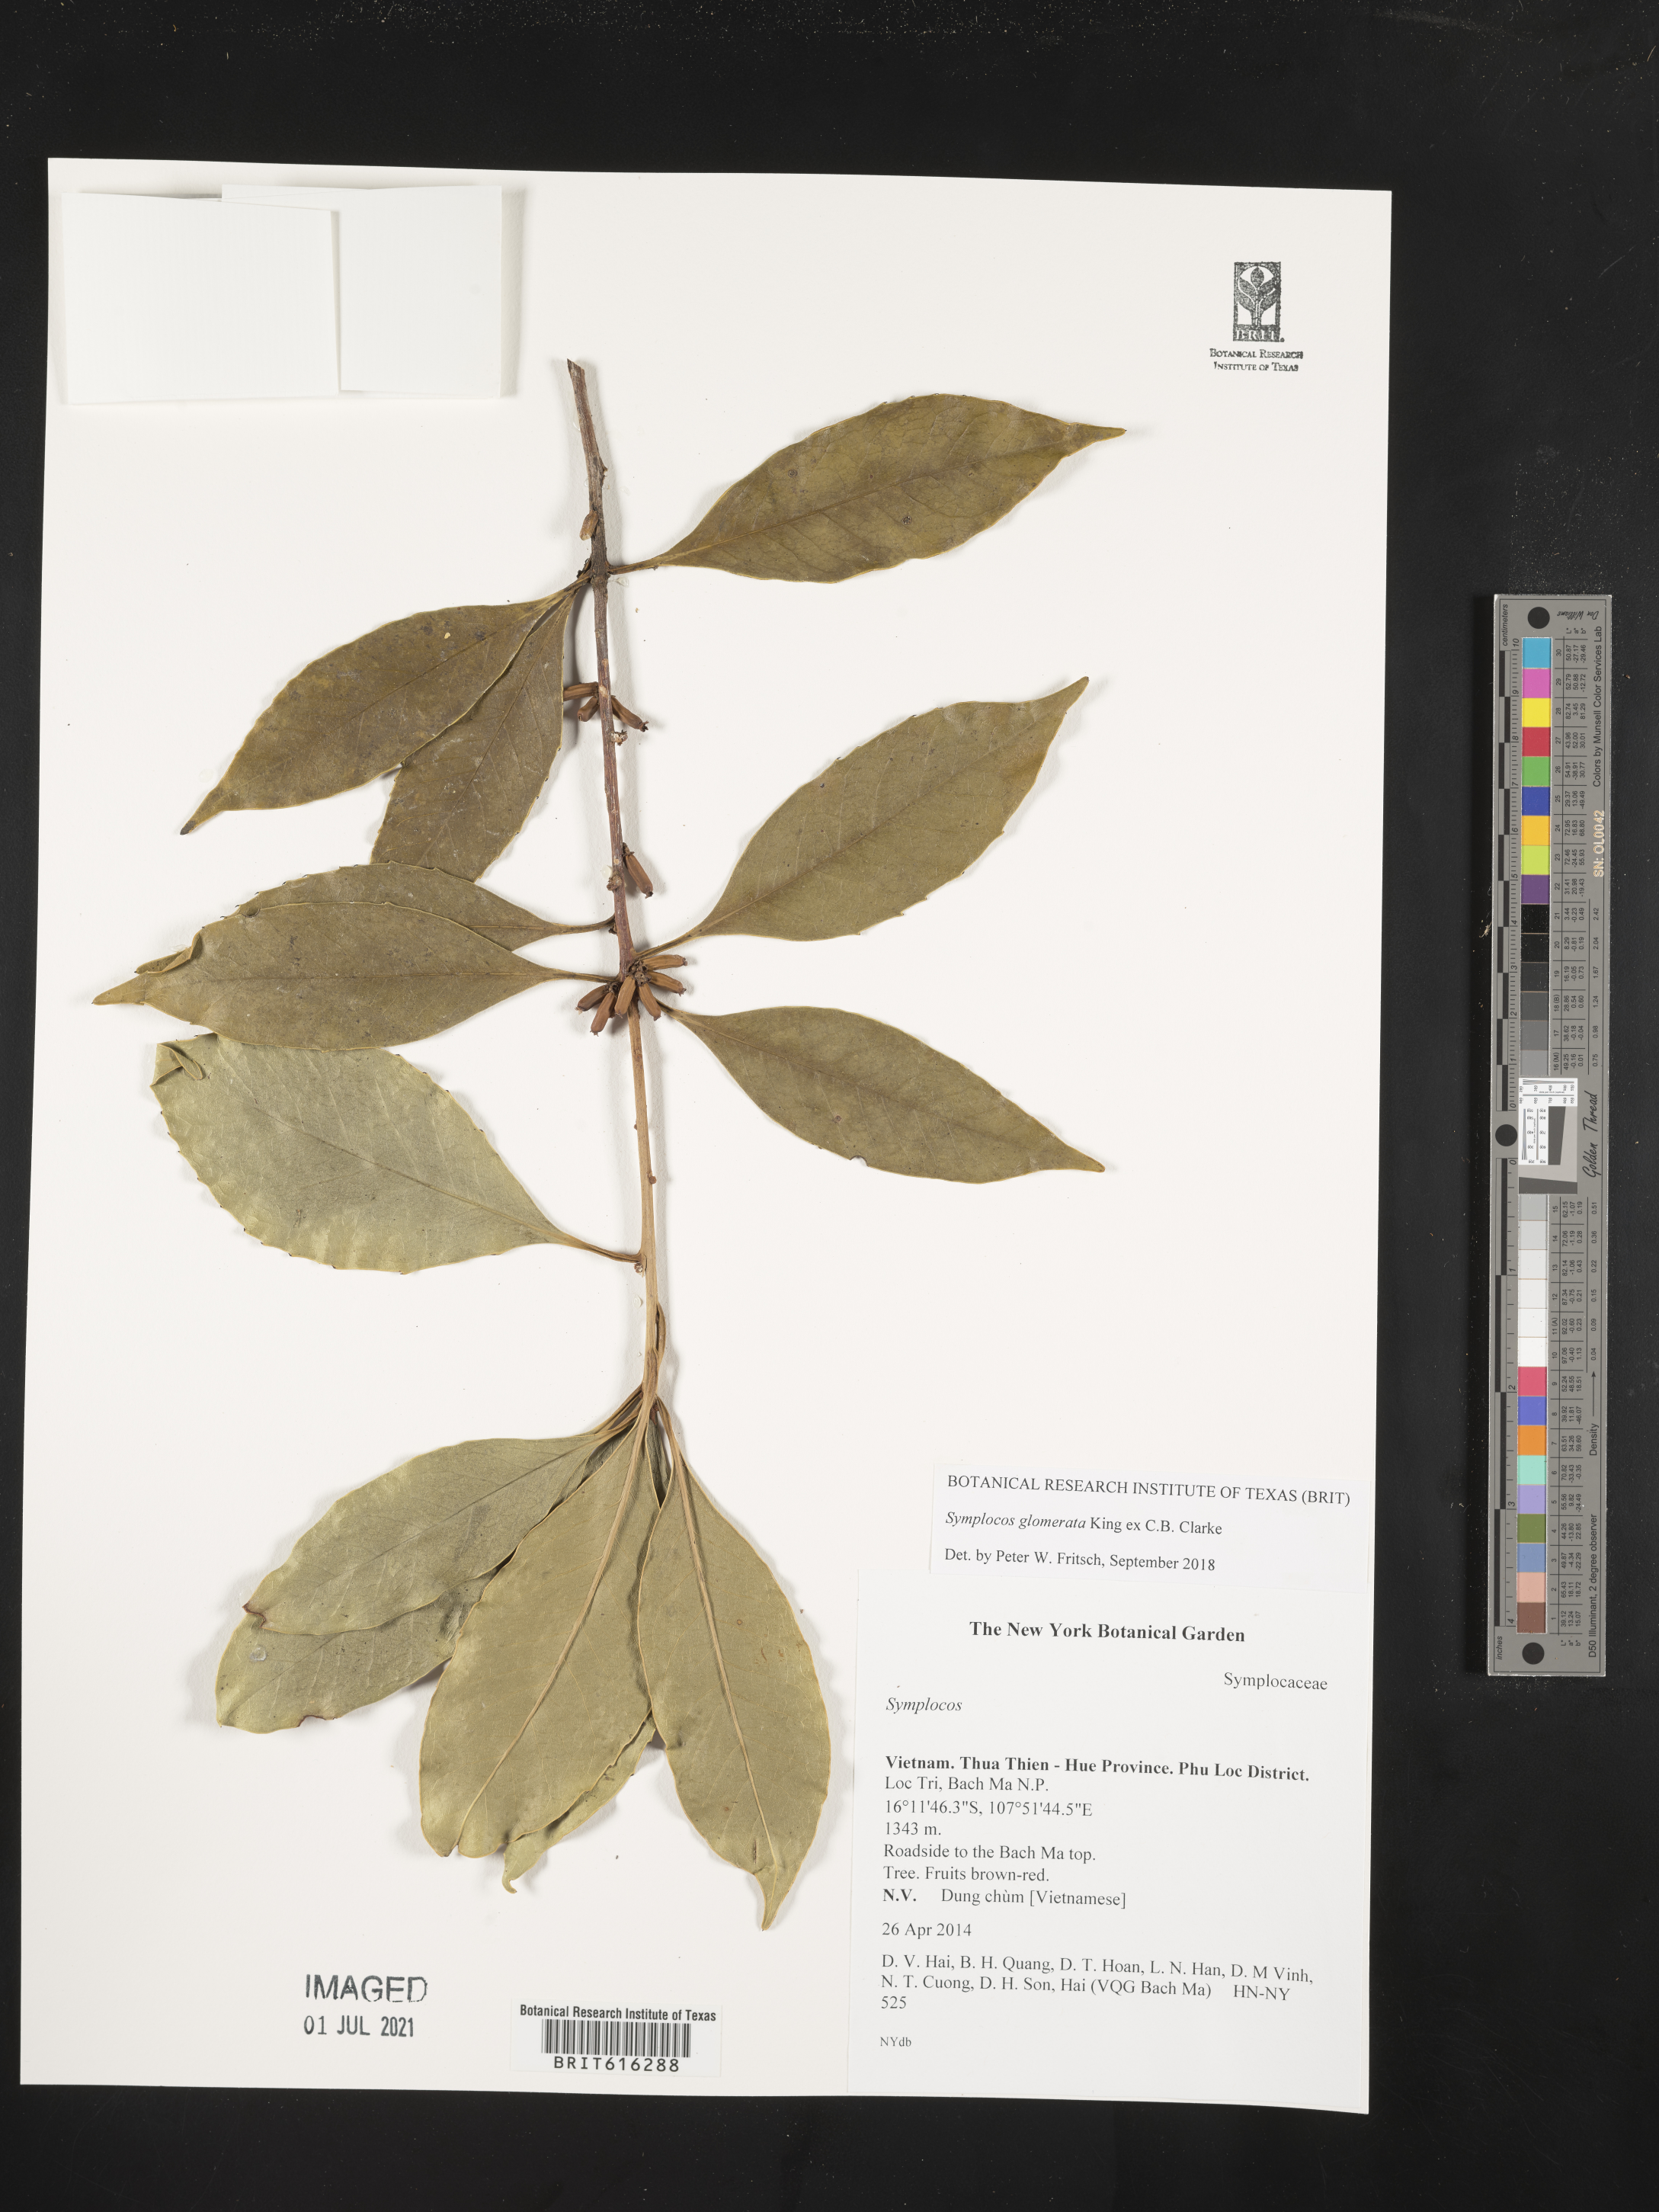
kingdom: Plantae
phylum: Tracheophyta
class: Magnoliopsida
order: Ericales
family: Symplocaceae
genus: Symplocos
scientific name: Symplocos glomerata
